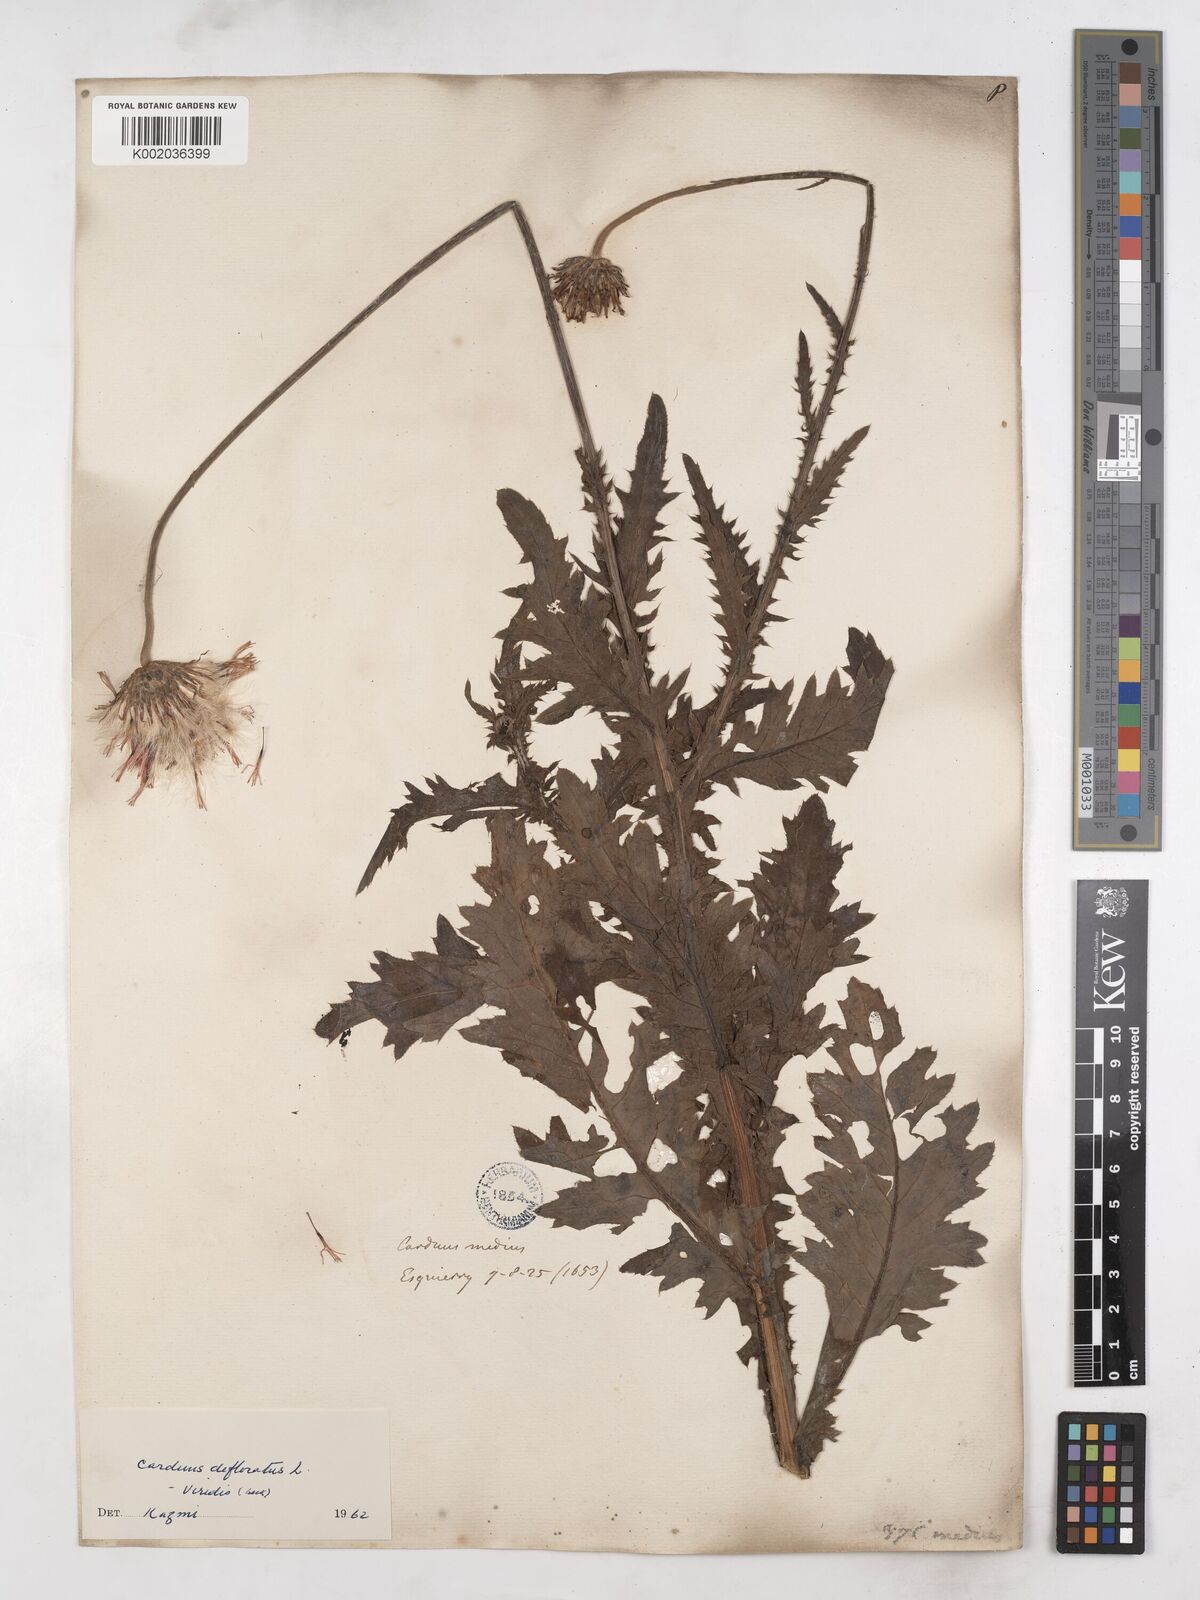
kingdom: Plantae
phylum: Tracheophyta
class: Magnoliopsida
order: Asterales
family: Asteraceae
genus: Carduus
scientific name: Carduus defloratus
